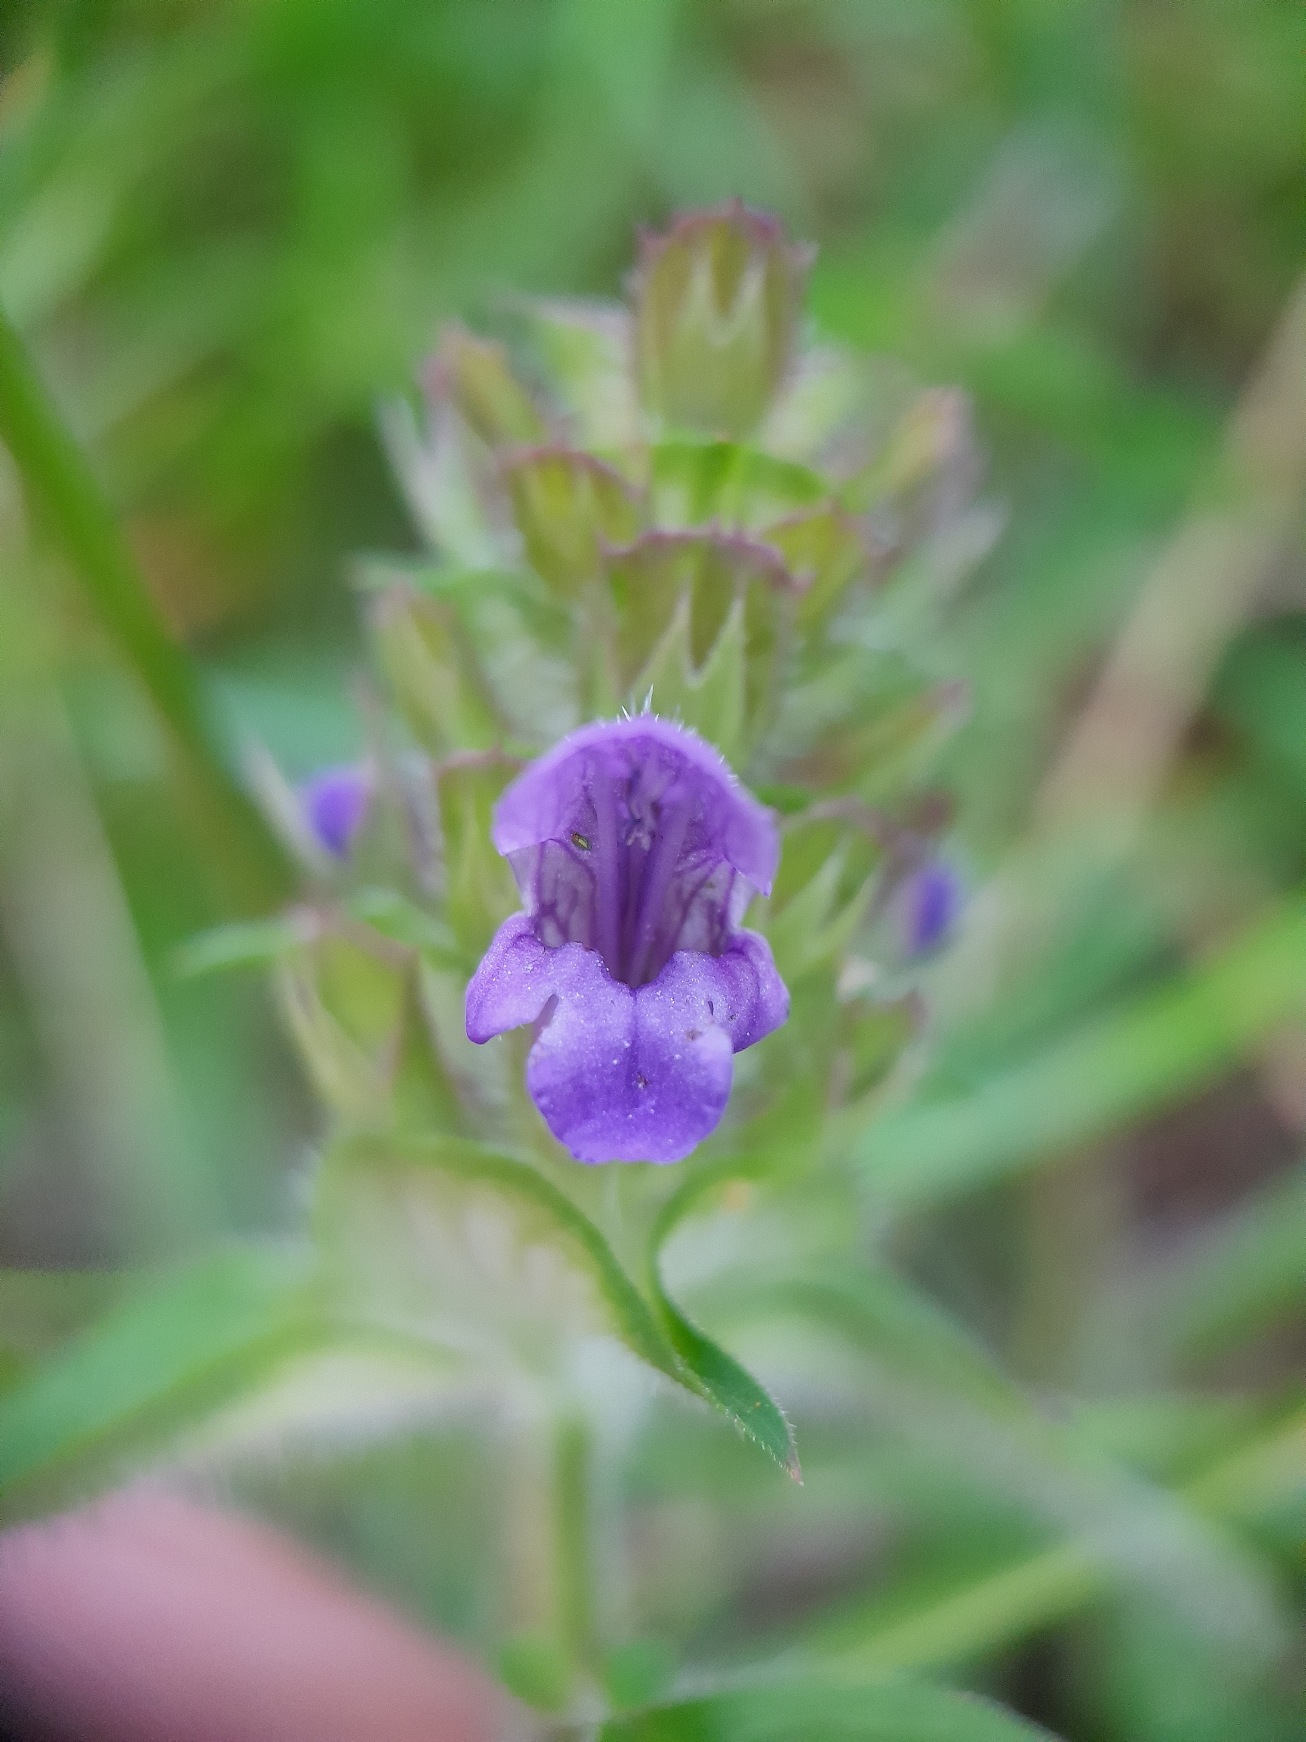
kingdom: Plantae
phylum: Tracheophyta
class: Magnoliopsida
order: Lamiales
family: Lamiaceae
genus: Prunella
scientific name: Prunella vulgaris
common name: Almindelig brunelle
